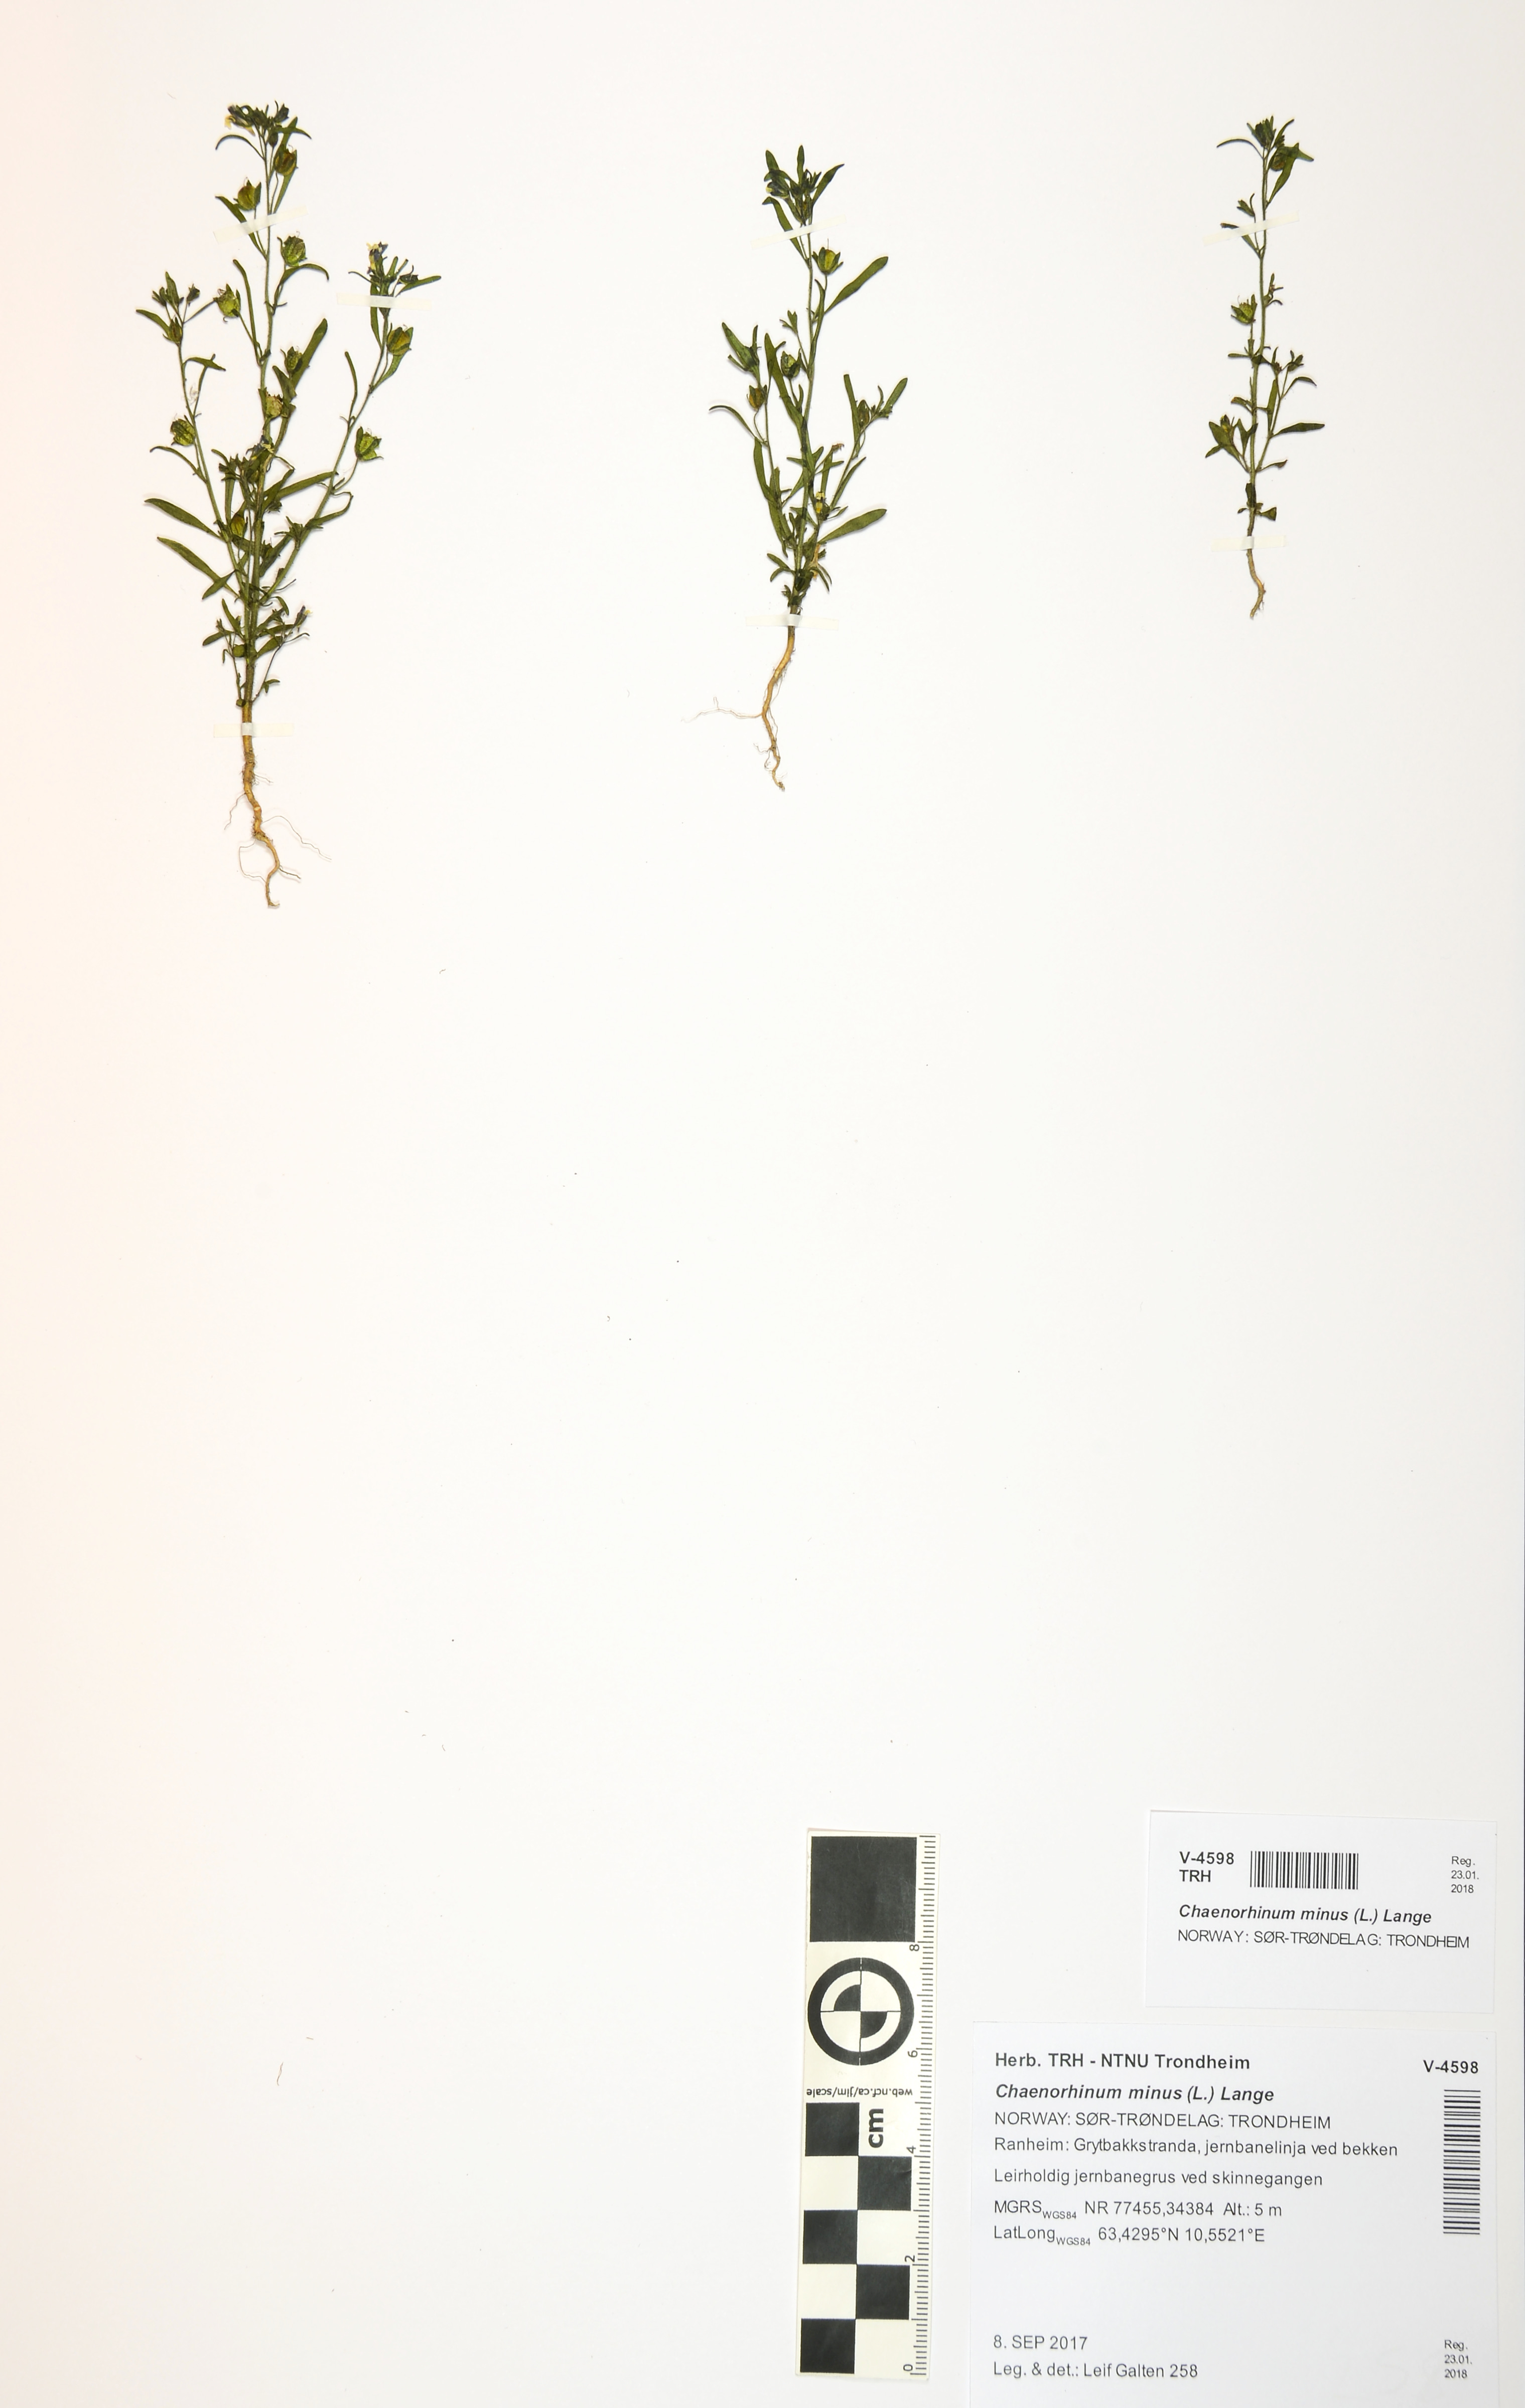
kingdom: Plantae
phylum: Tracheophyta
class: Magnoliopsida
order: Lamiales
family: Plantaginaceae
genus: Chaenorhinum
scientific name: Chaenorhinum minus
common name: Dwarf snapdragon
